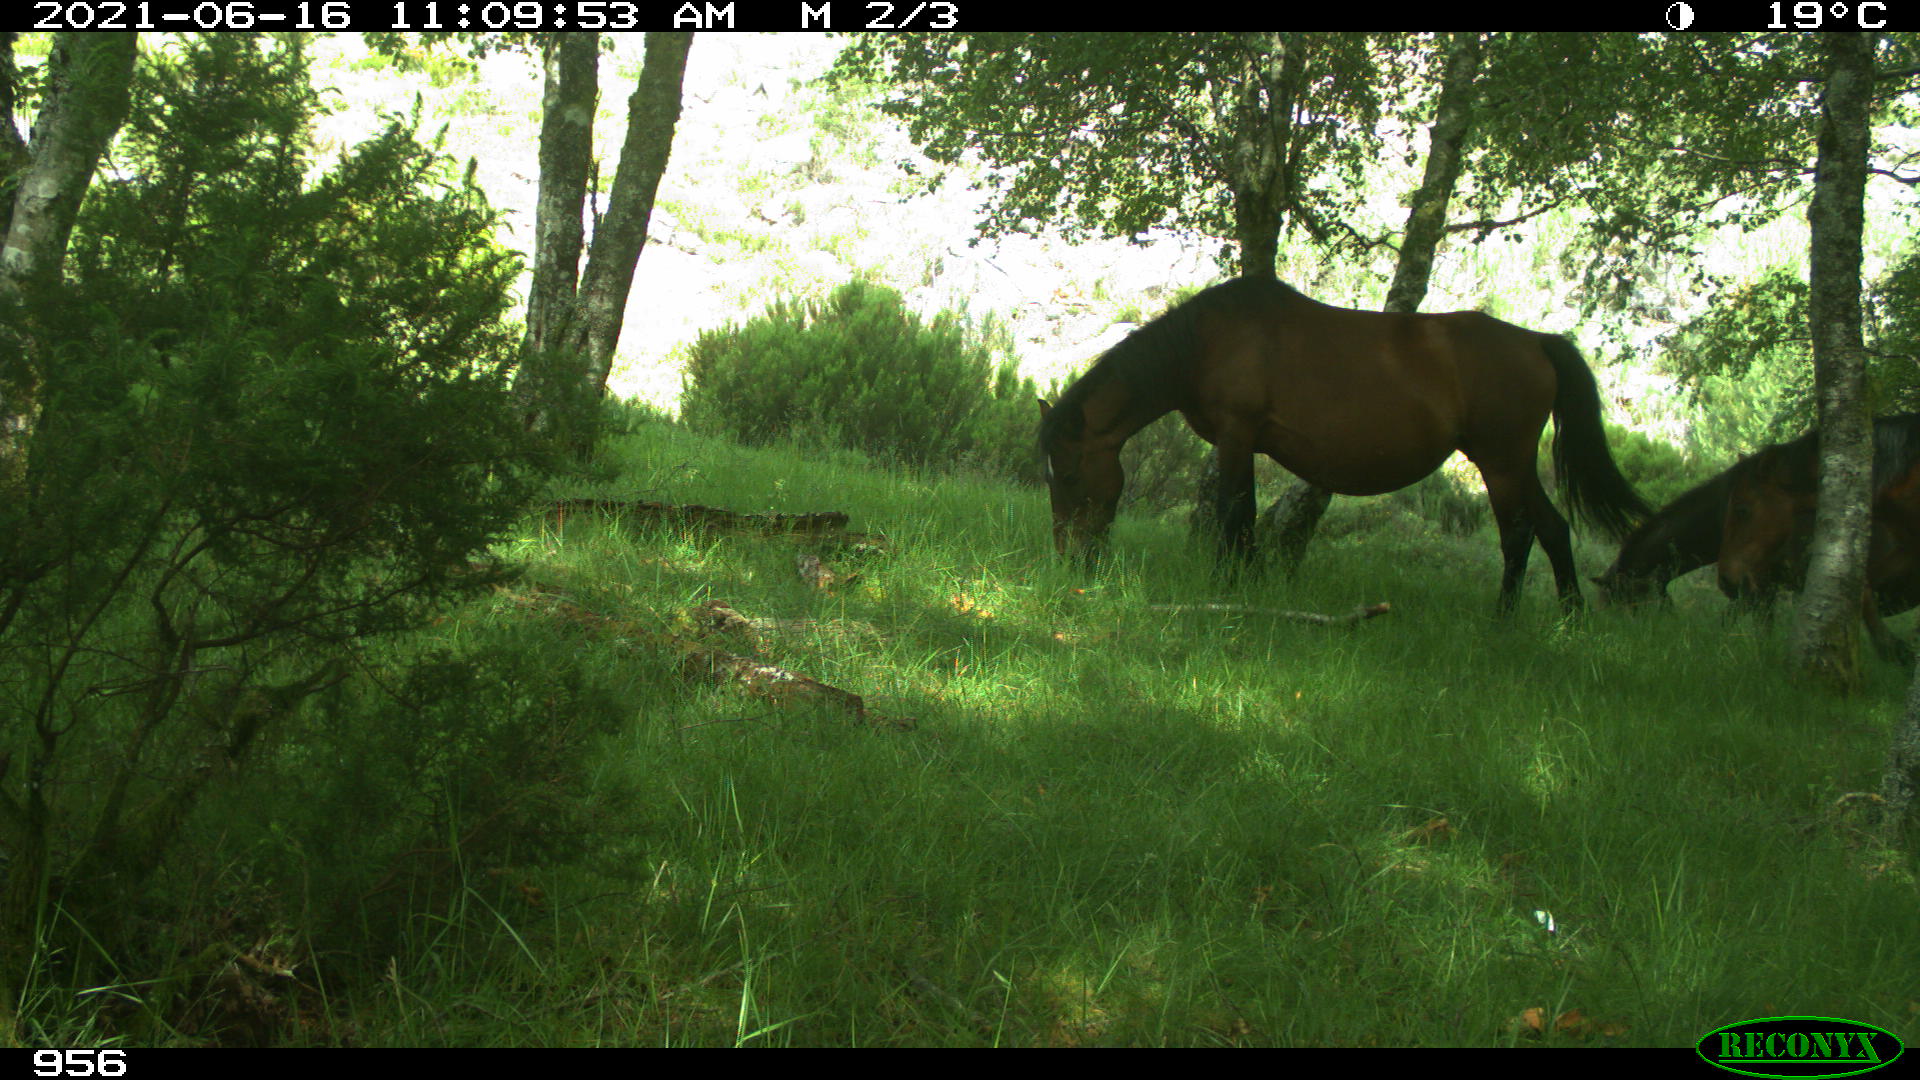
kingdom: Animalia
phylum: Chordata
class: Mammalia
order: Perissodactyla
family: Equidae
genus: Equus
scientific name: Equus caballus
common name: Horse
